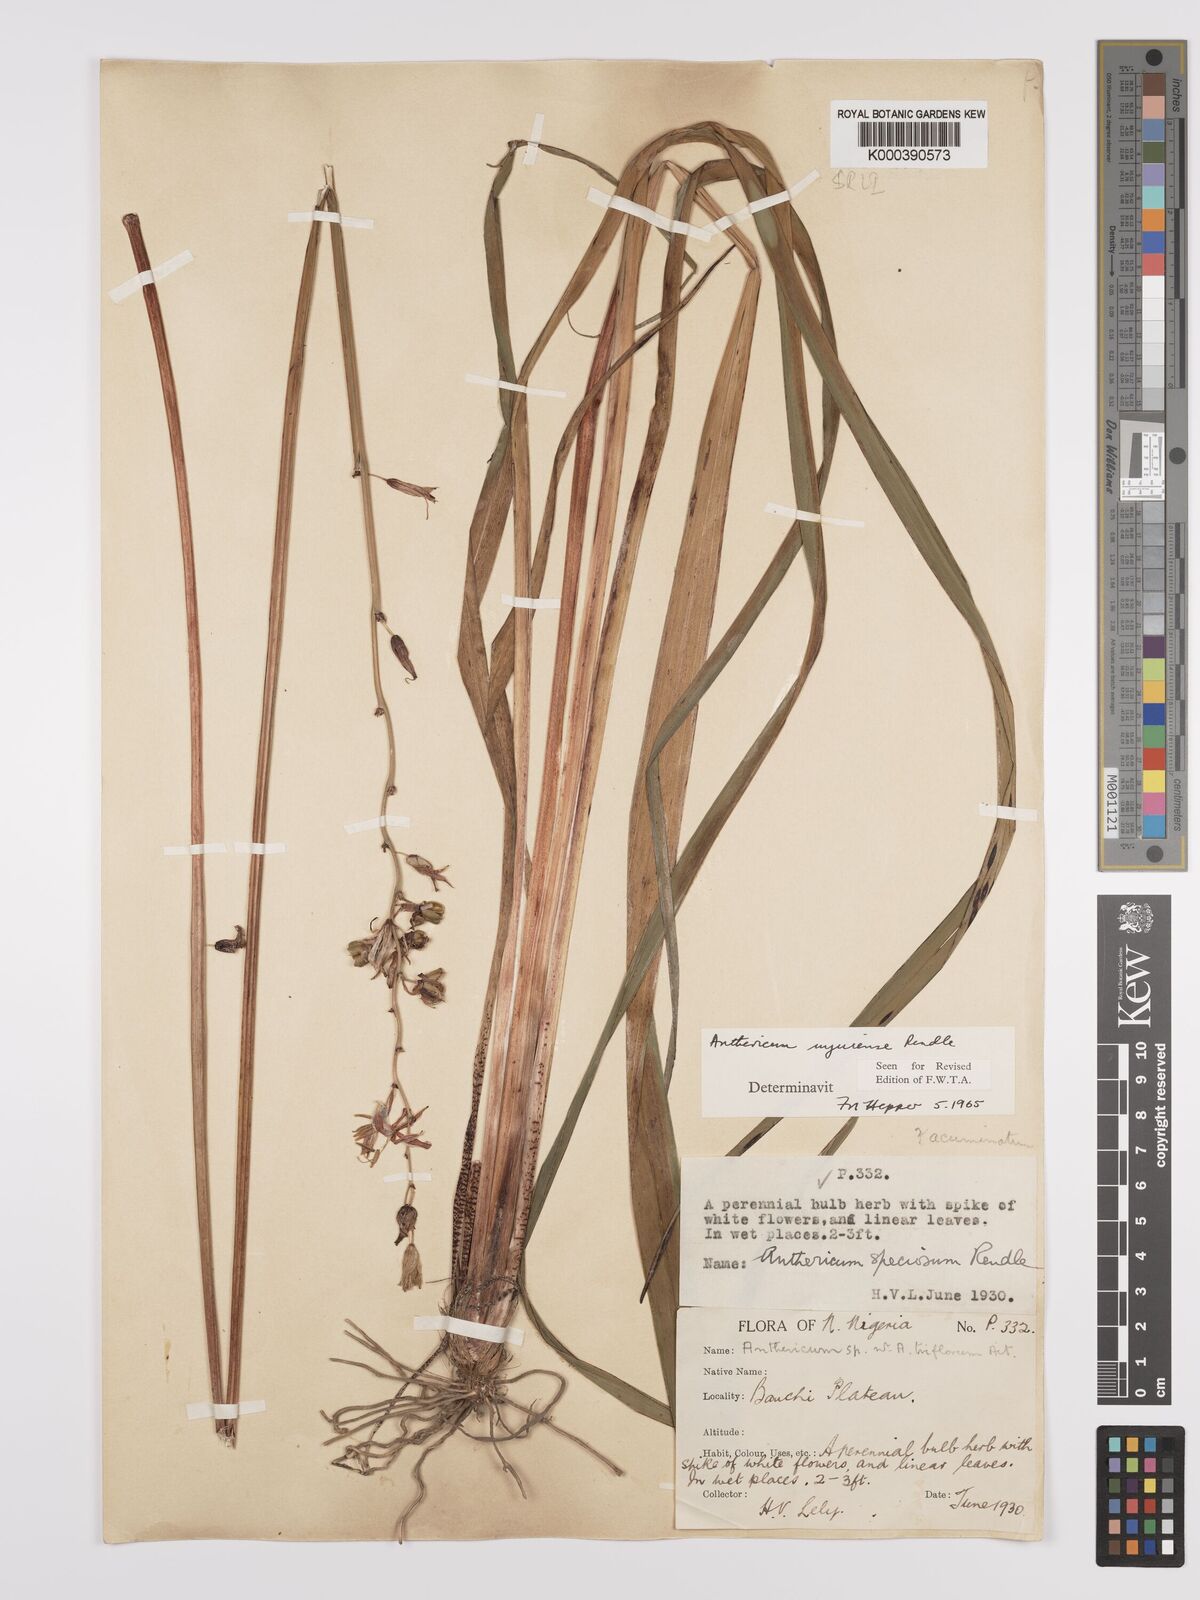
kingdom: Plantae
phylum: Tracheophyta
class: Liliopsida
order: Asparagales
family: Asparagaceae
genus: Chlorophytum
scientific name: Chlorophytum cameronii
